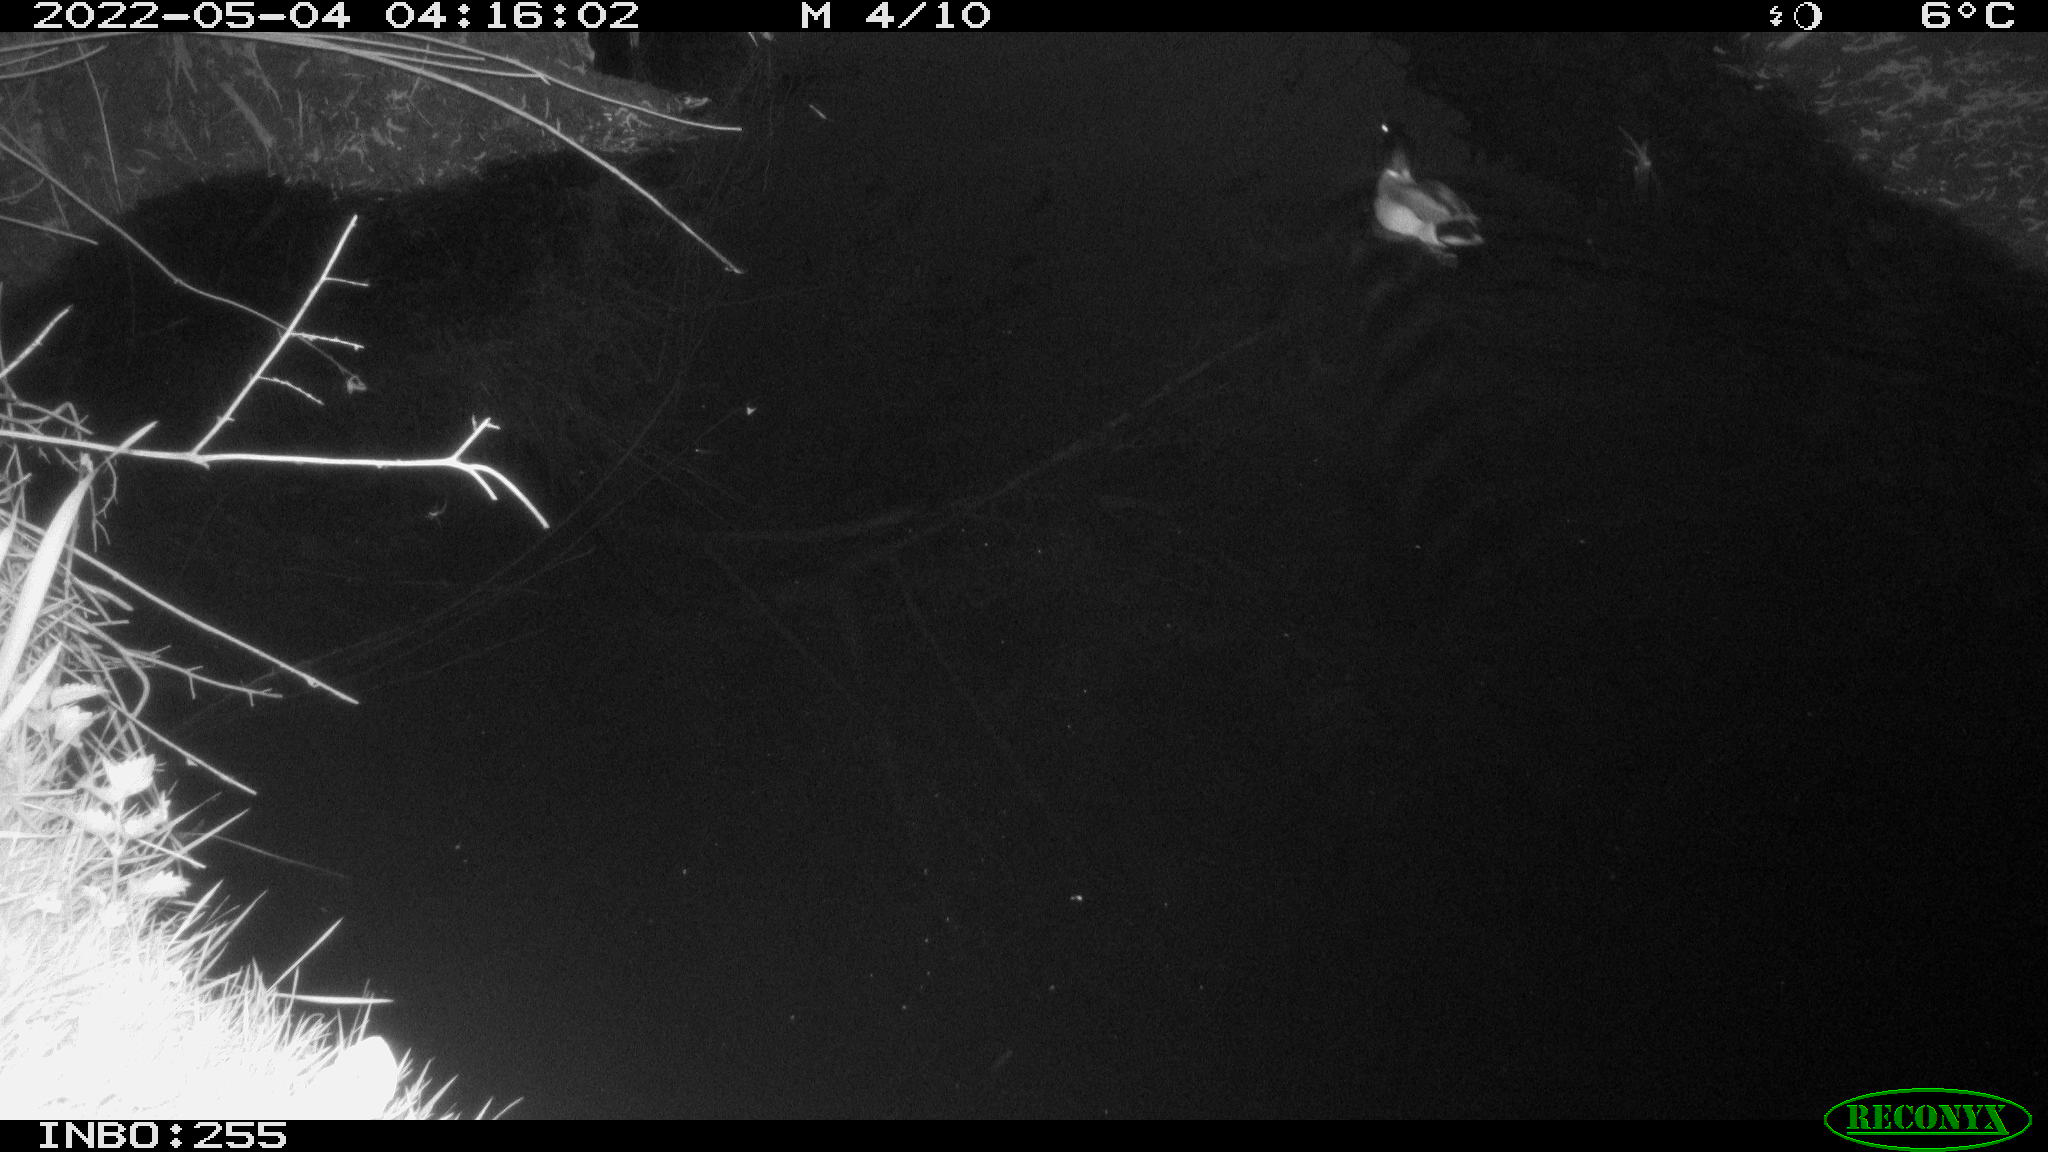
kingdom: Animalia
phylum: Chordata
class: Aves
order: Anseriformes
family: Anatidae
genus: Anas
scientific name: Anas platyrhynchos
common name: Mallard
